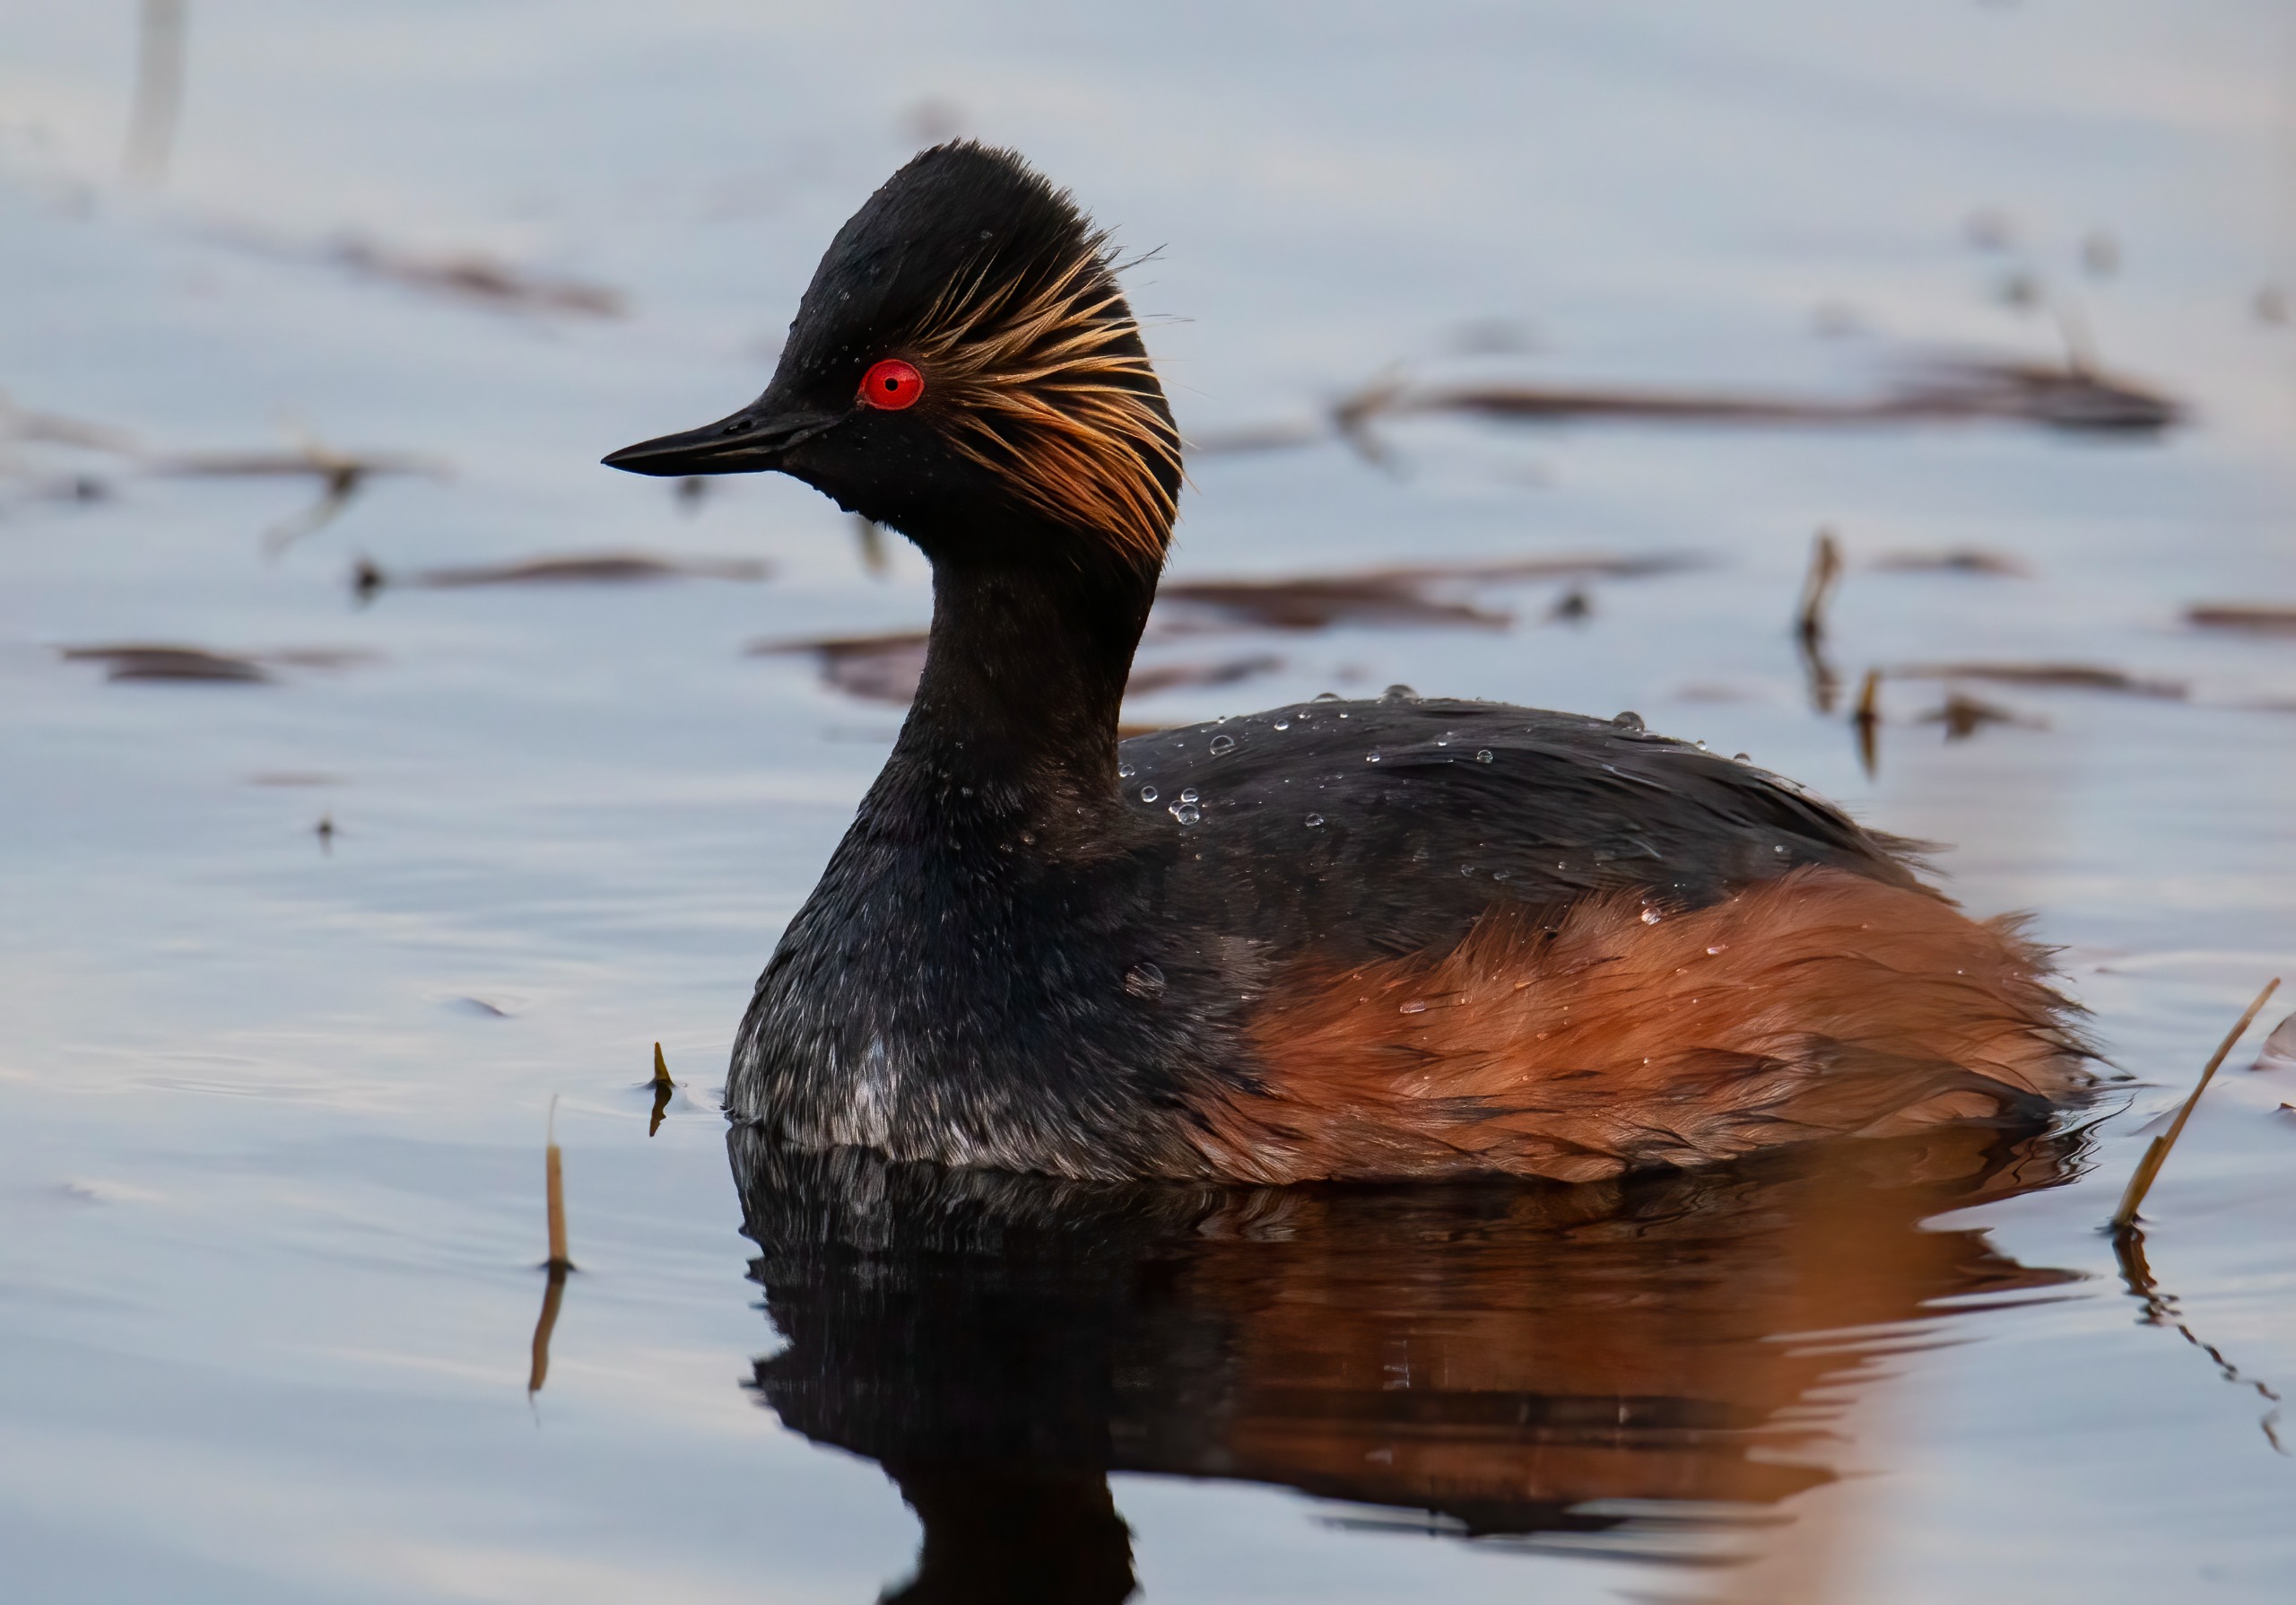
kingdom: Animalia
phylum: Chordata
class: Aves
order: Podicipediformes
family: Podicipedidae
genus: Podiceps
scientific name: Podiceps nigricollis
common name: Sorthalset lappedykker
